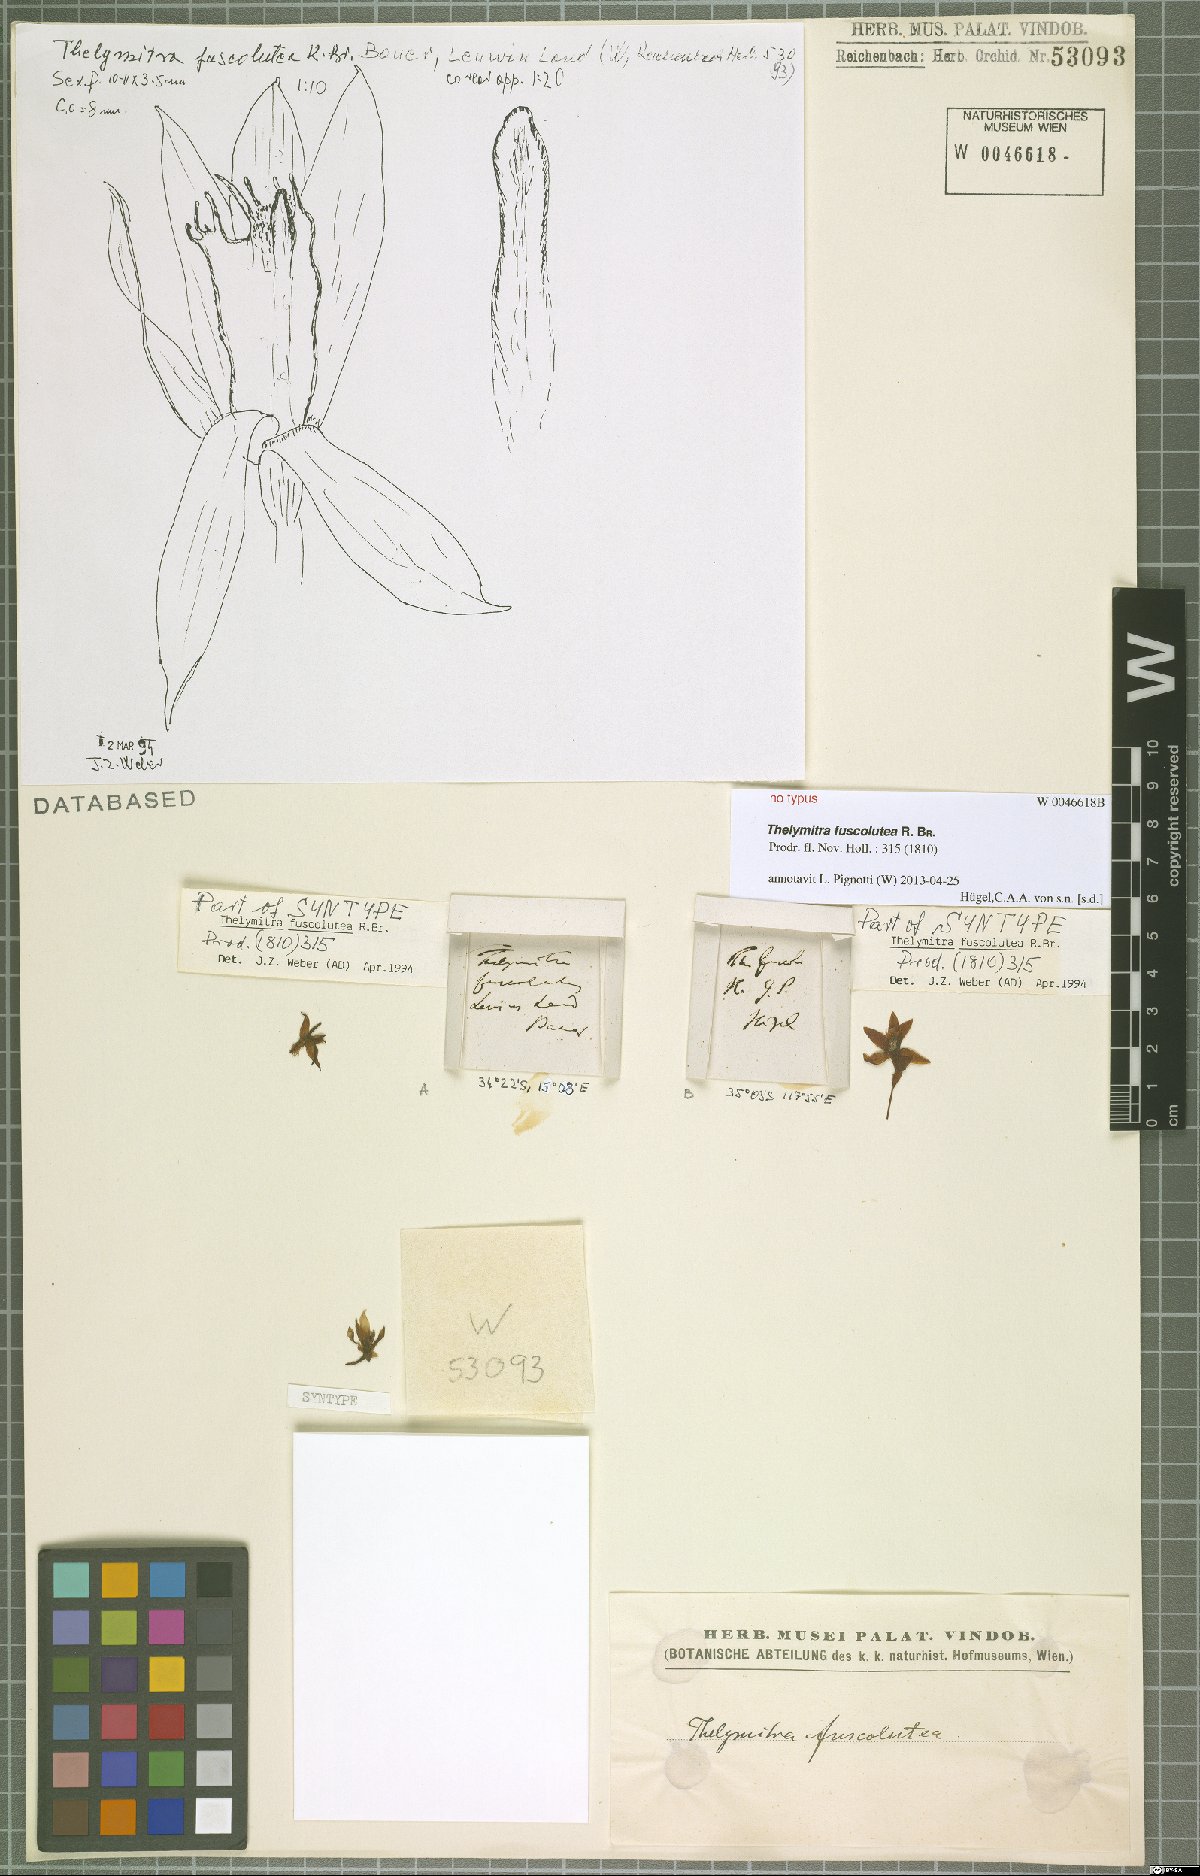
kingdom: Plantae
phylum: Tracheophyta
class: Liliopsida
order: Asparagales
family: Orchidaceae
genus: Thelymitra
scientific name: Thelymitra fuscolutea
